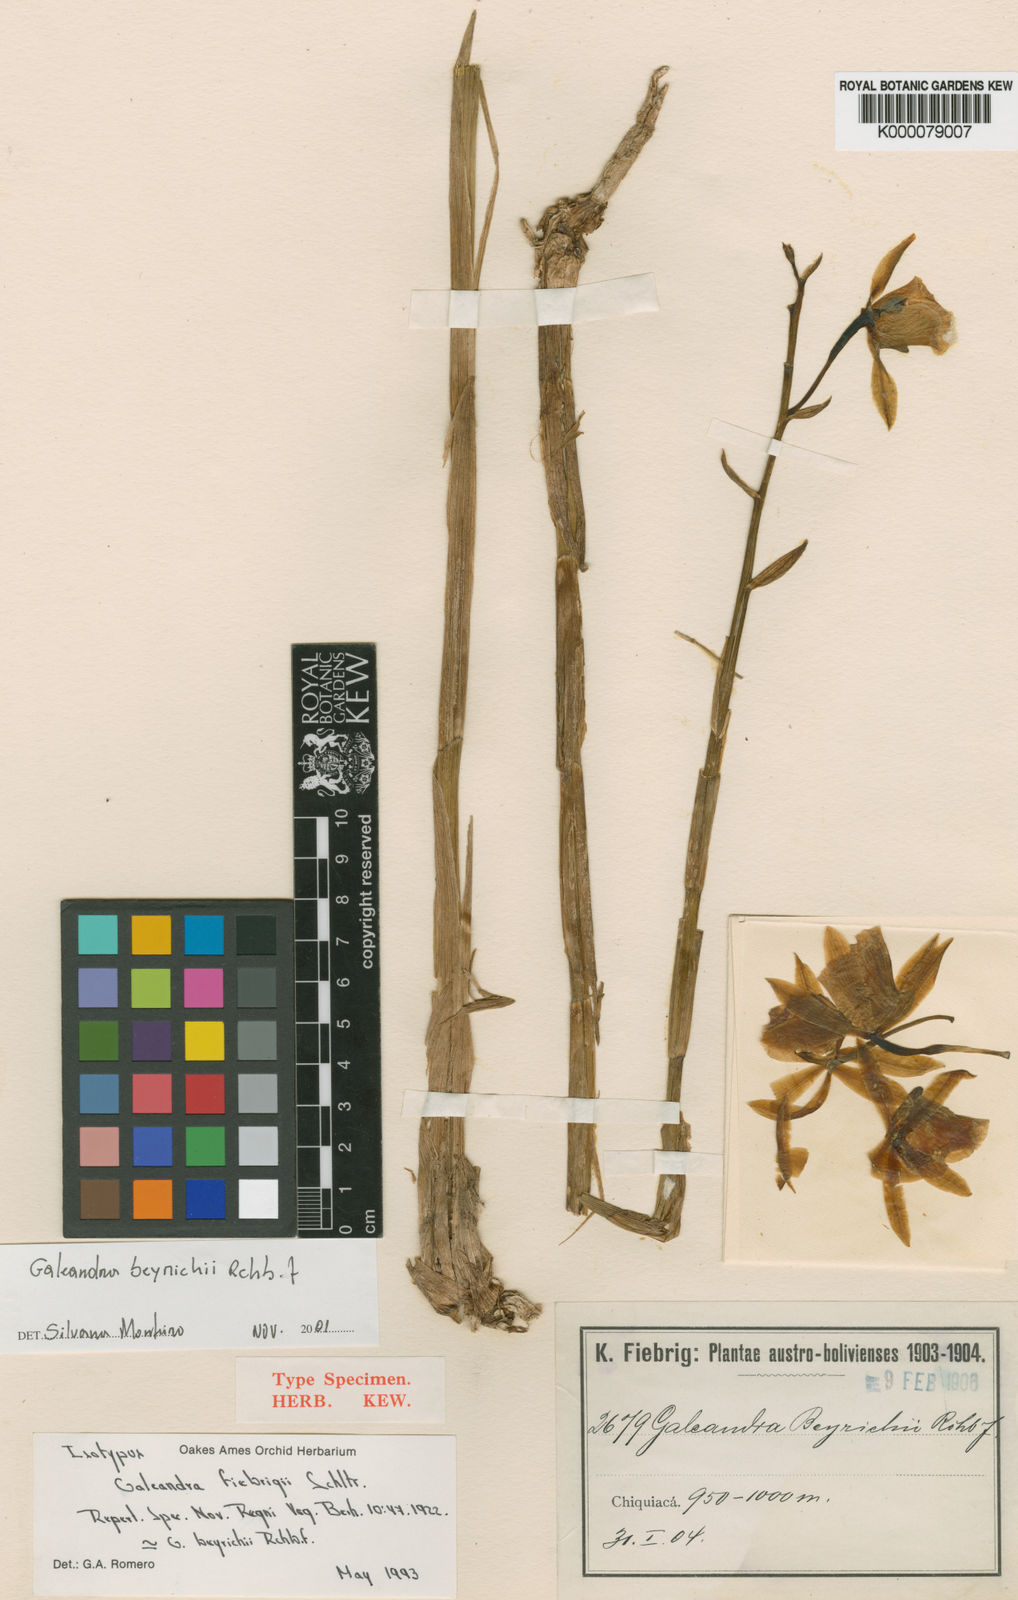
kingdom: Plantae
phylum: Tracheophyta
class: Liliopsida
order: Asparagales
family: Orchidaceae
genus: Galeandra
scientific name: Galeandra beyrichii
